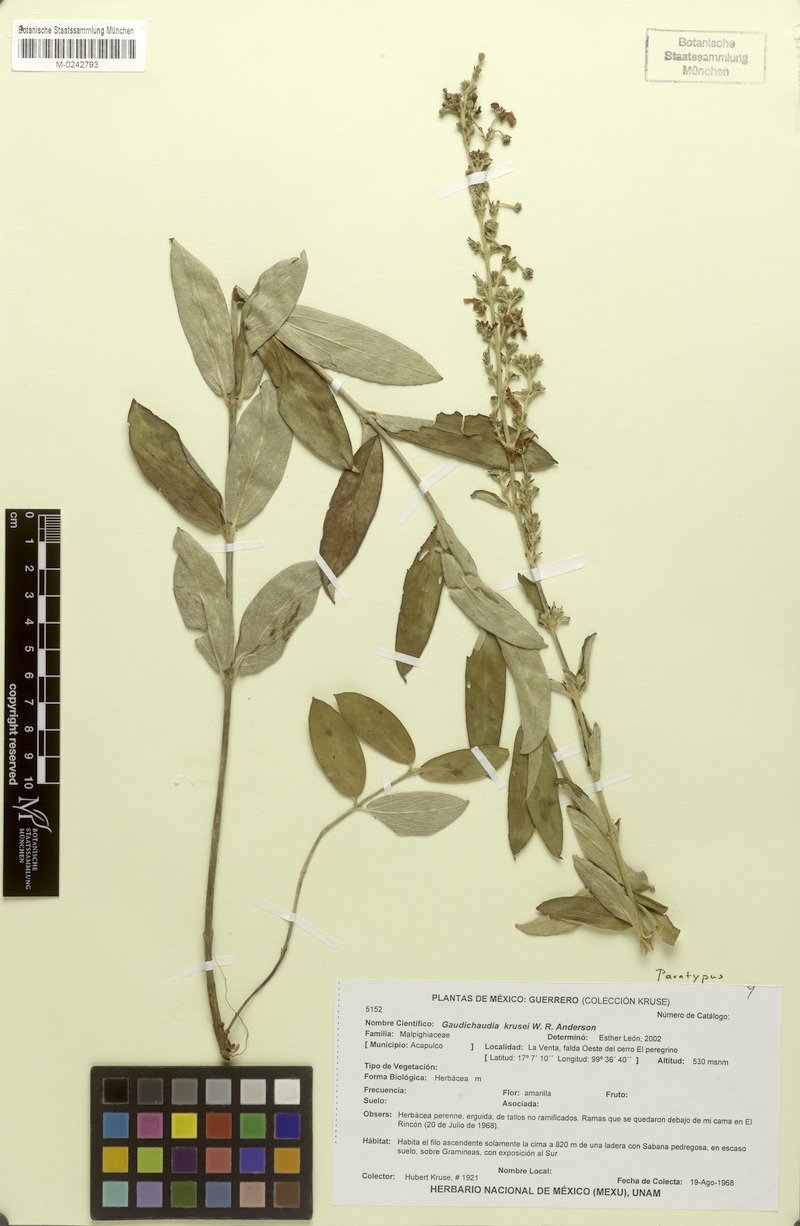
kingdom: Plantae
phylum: Tracheophyta
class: Magnoliopsida
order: Malpighiales
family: Malpighiaceae
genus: Gaudichaudia
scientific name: Gaudichaudia krusei
